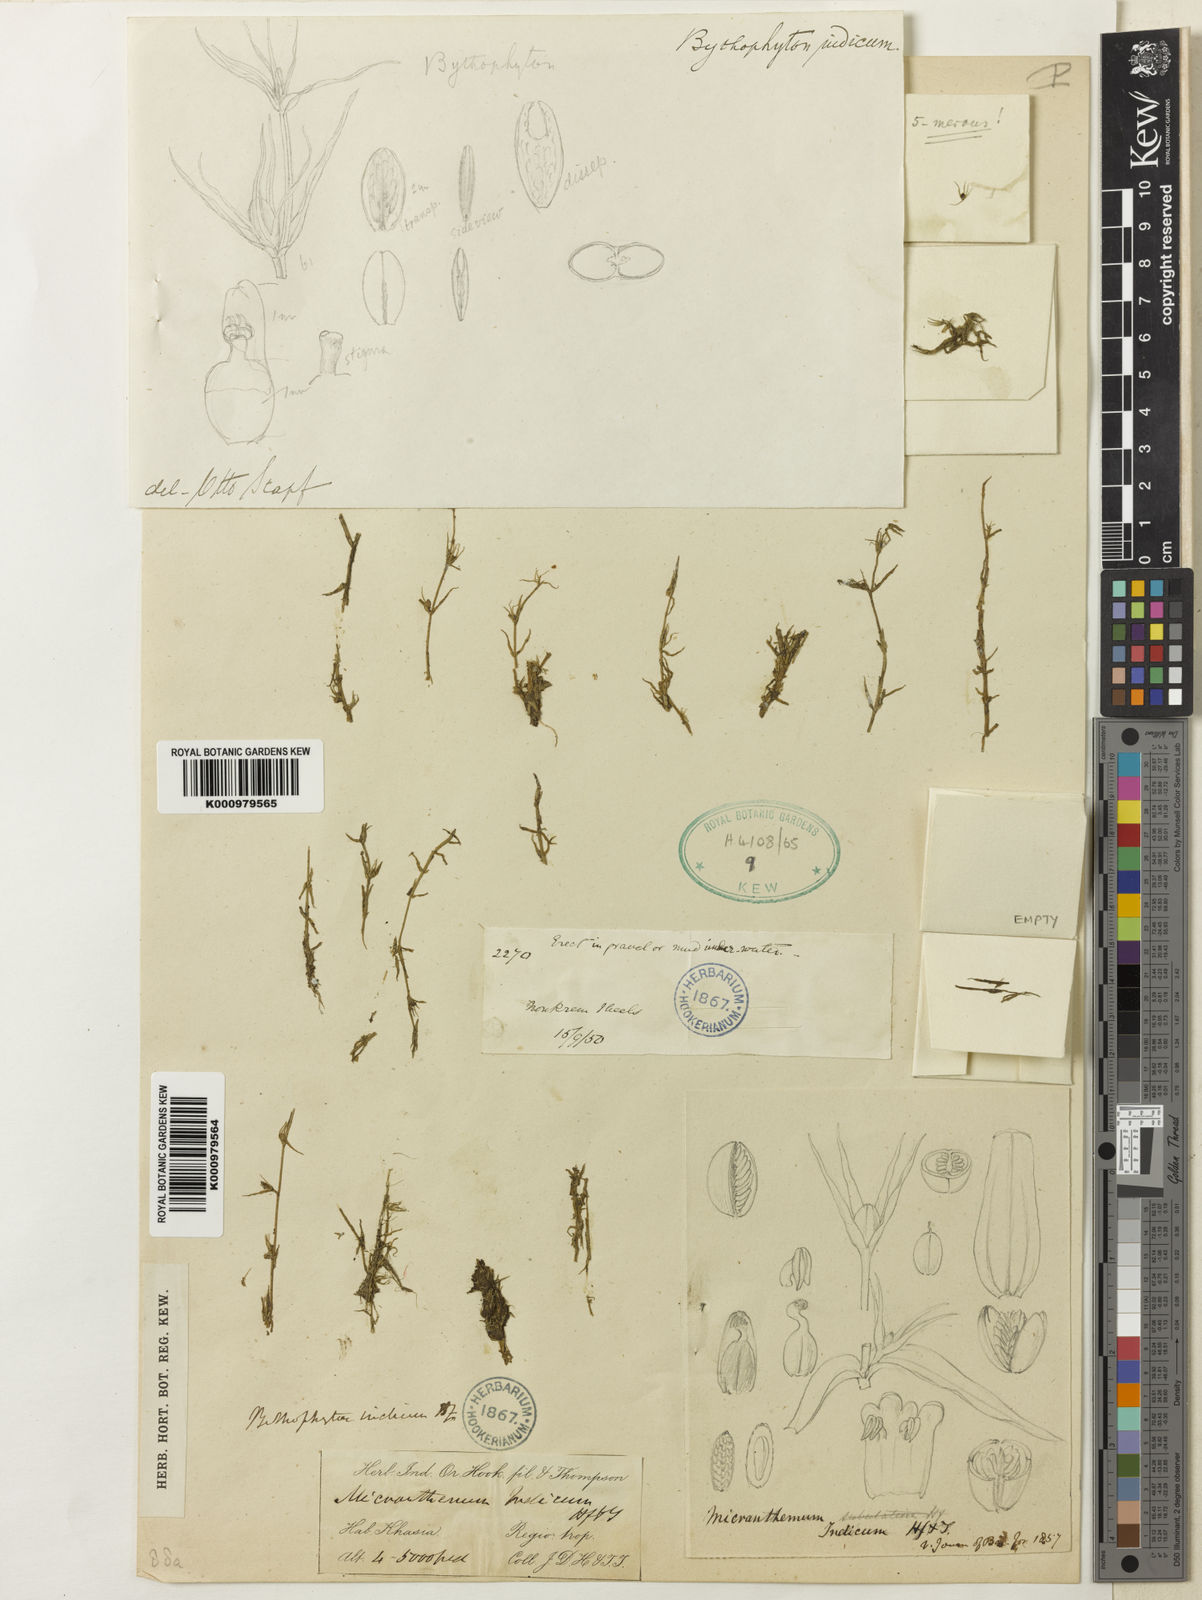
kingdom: Plantae
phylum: Tracheophyta
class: Magnoliopsida
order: Lamiales
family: Phrymaceae
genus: Bythophyton
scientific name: Bythophyton
